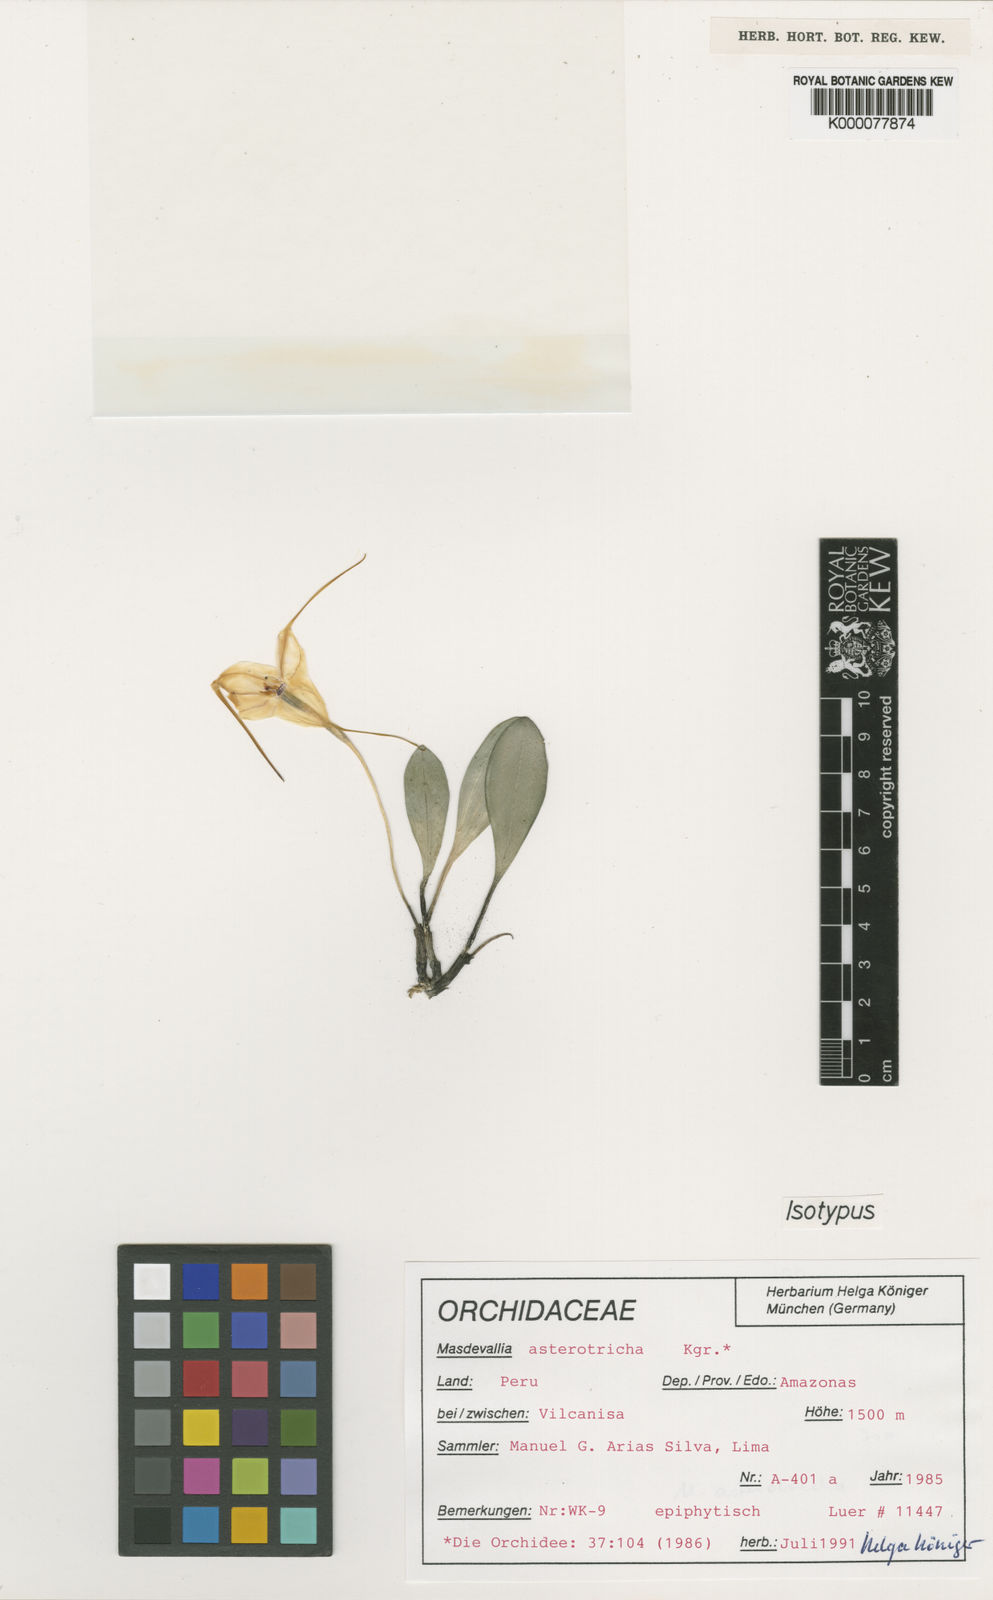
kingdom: Plantae
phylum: Tracheophyta
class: Liliopsida
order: Asparagales
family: Orchidaceae
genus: Masdevallia
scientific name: Masdevallia
